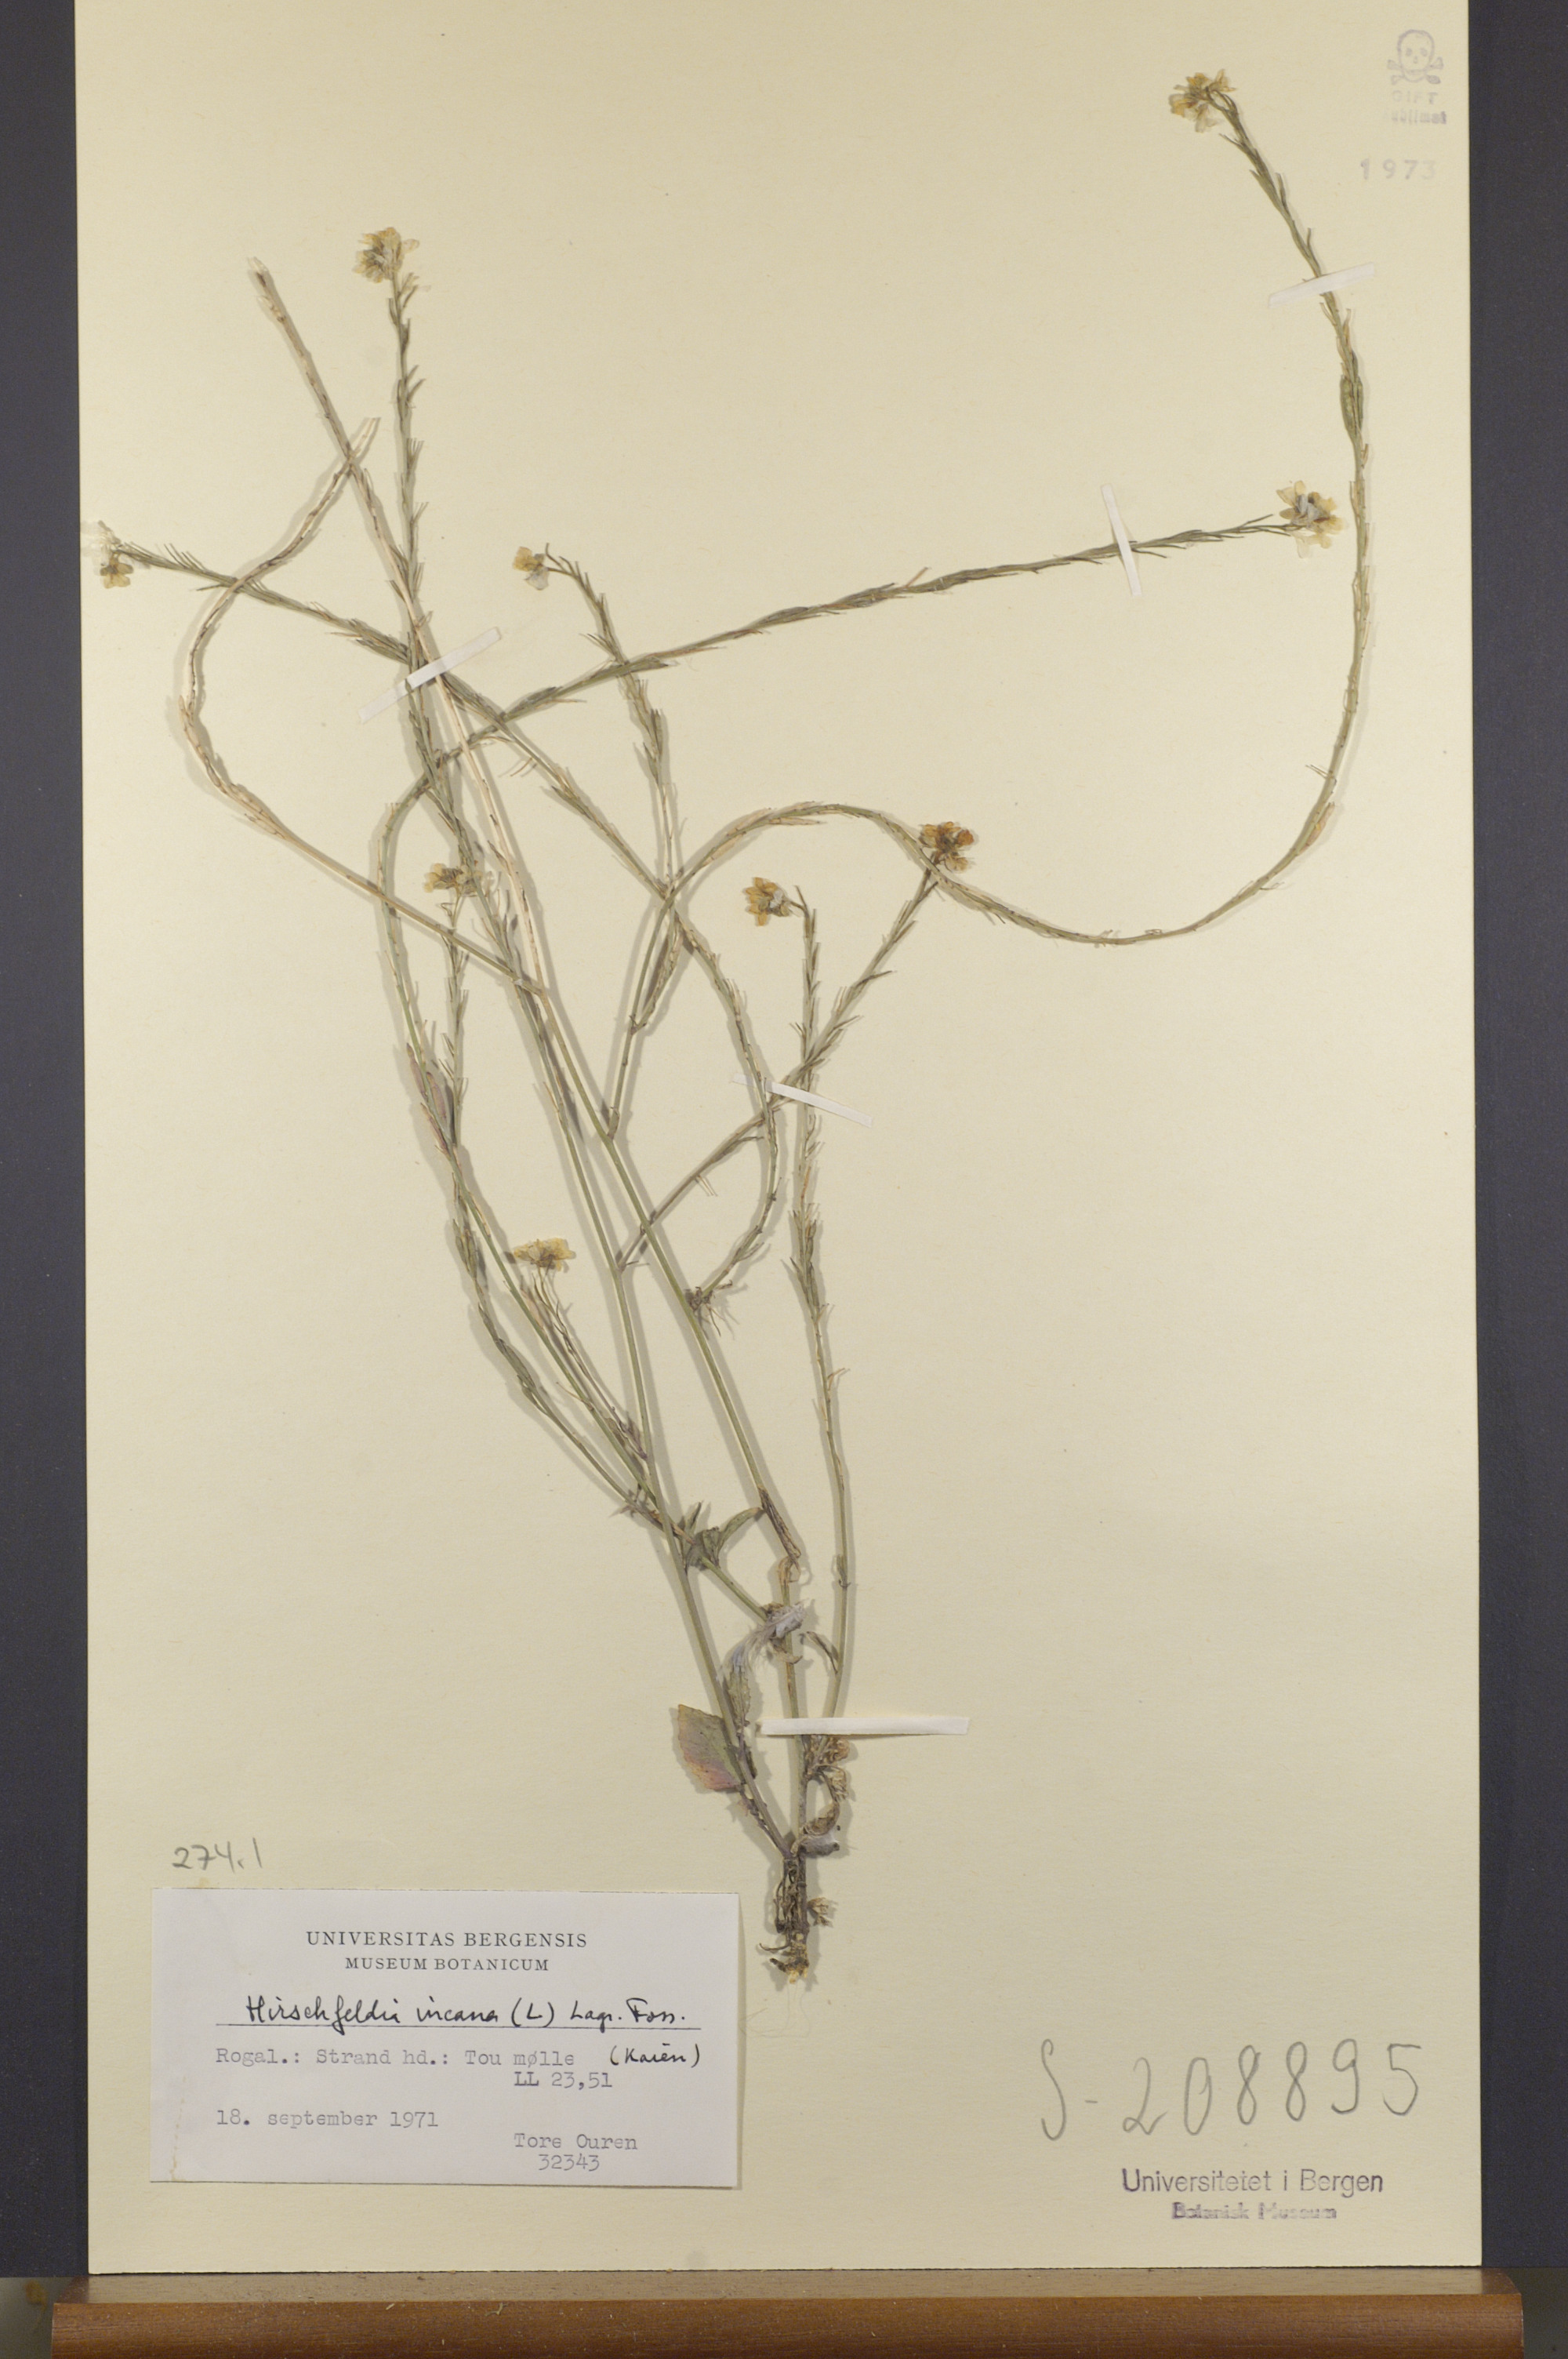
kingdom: Plantae
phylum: Tracheophyta
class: Magnoliopsida
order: Brassicales
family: Brassicaceae
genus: Hirschfeldia
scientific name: Hirschfeldia incana
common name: Hoary mustard
